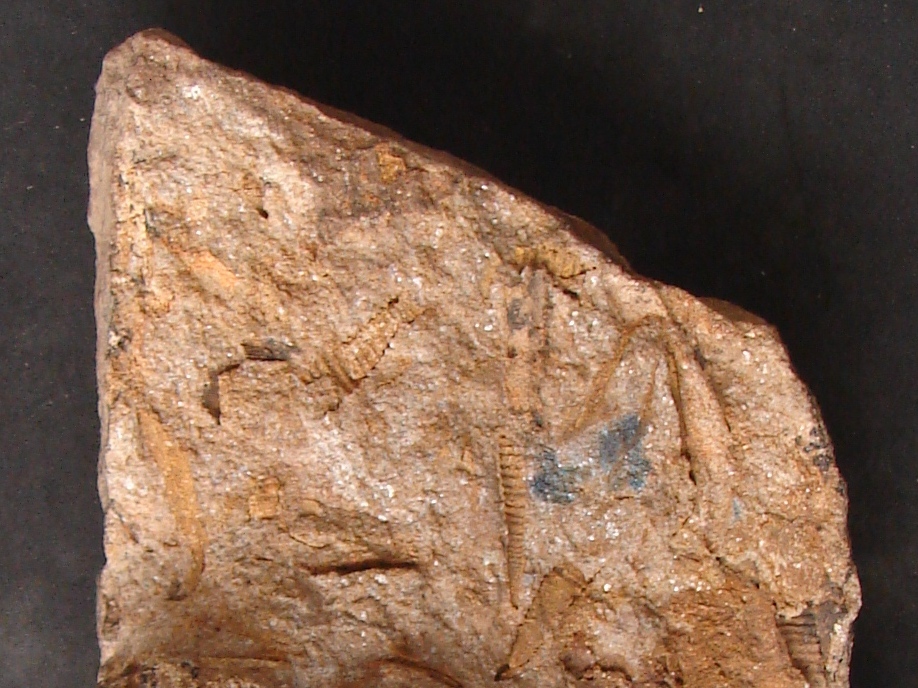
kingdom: Animalia
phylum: Mollusca
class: Cricoconarida
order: Tentaculitida
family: Tentaculitidae
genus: Tentaculites
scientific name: Tentaculites
